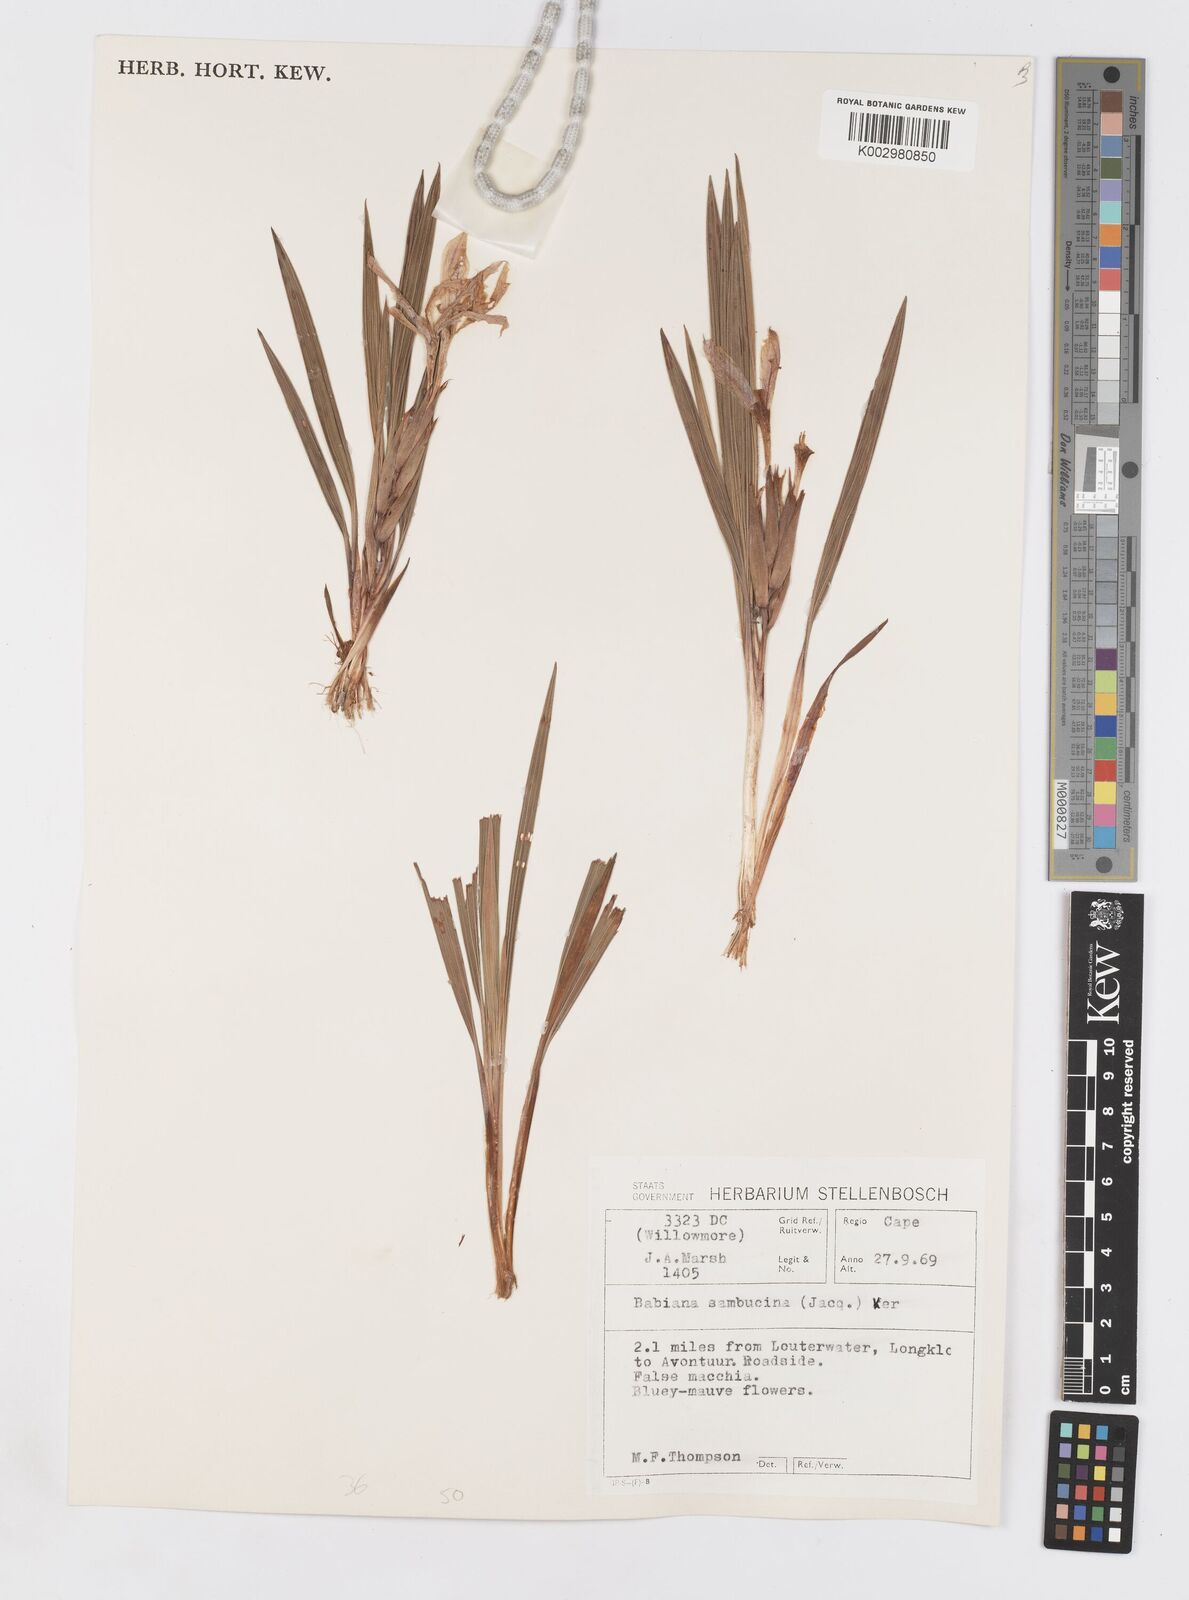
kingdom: Plantae
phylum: Tracheophyta
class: Liliopsida
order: Asparagales
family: Iridaceae
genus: Babiana
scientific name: Babiana sambucina
